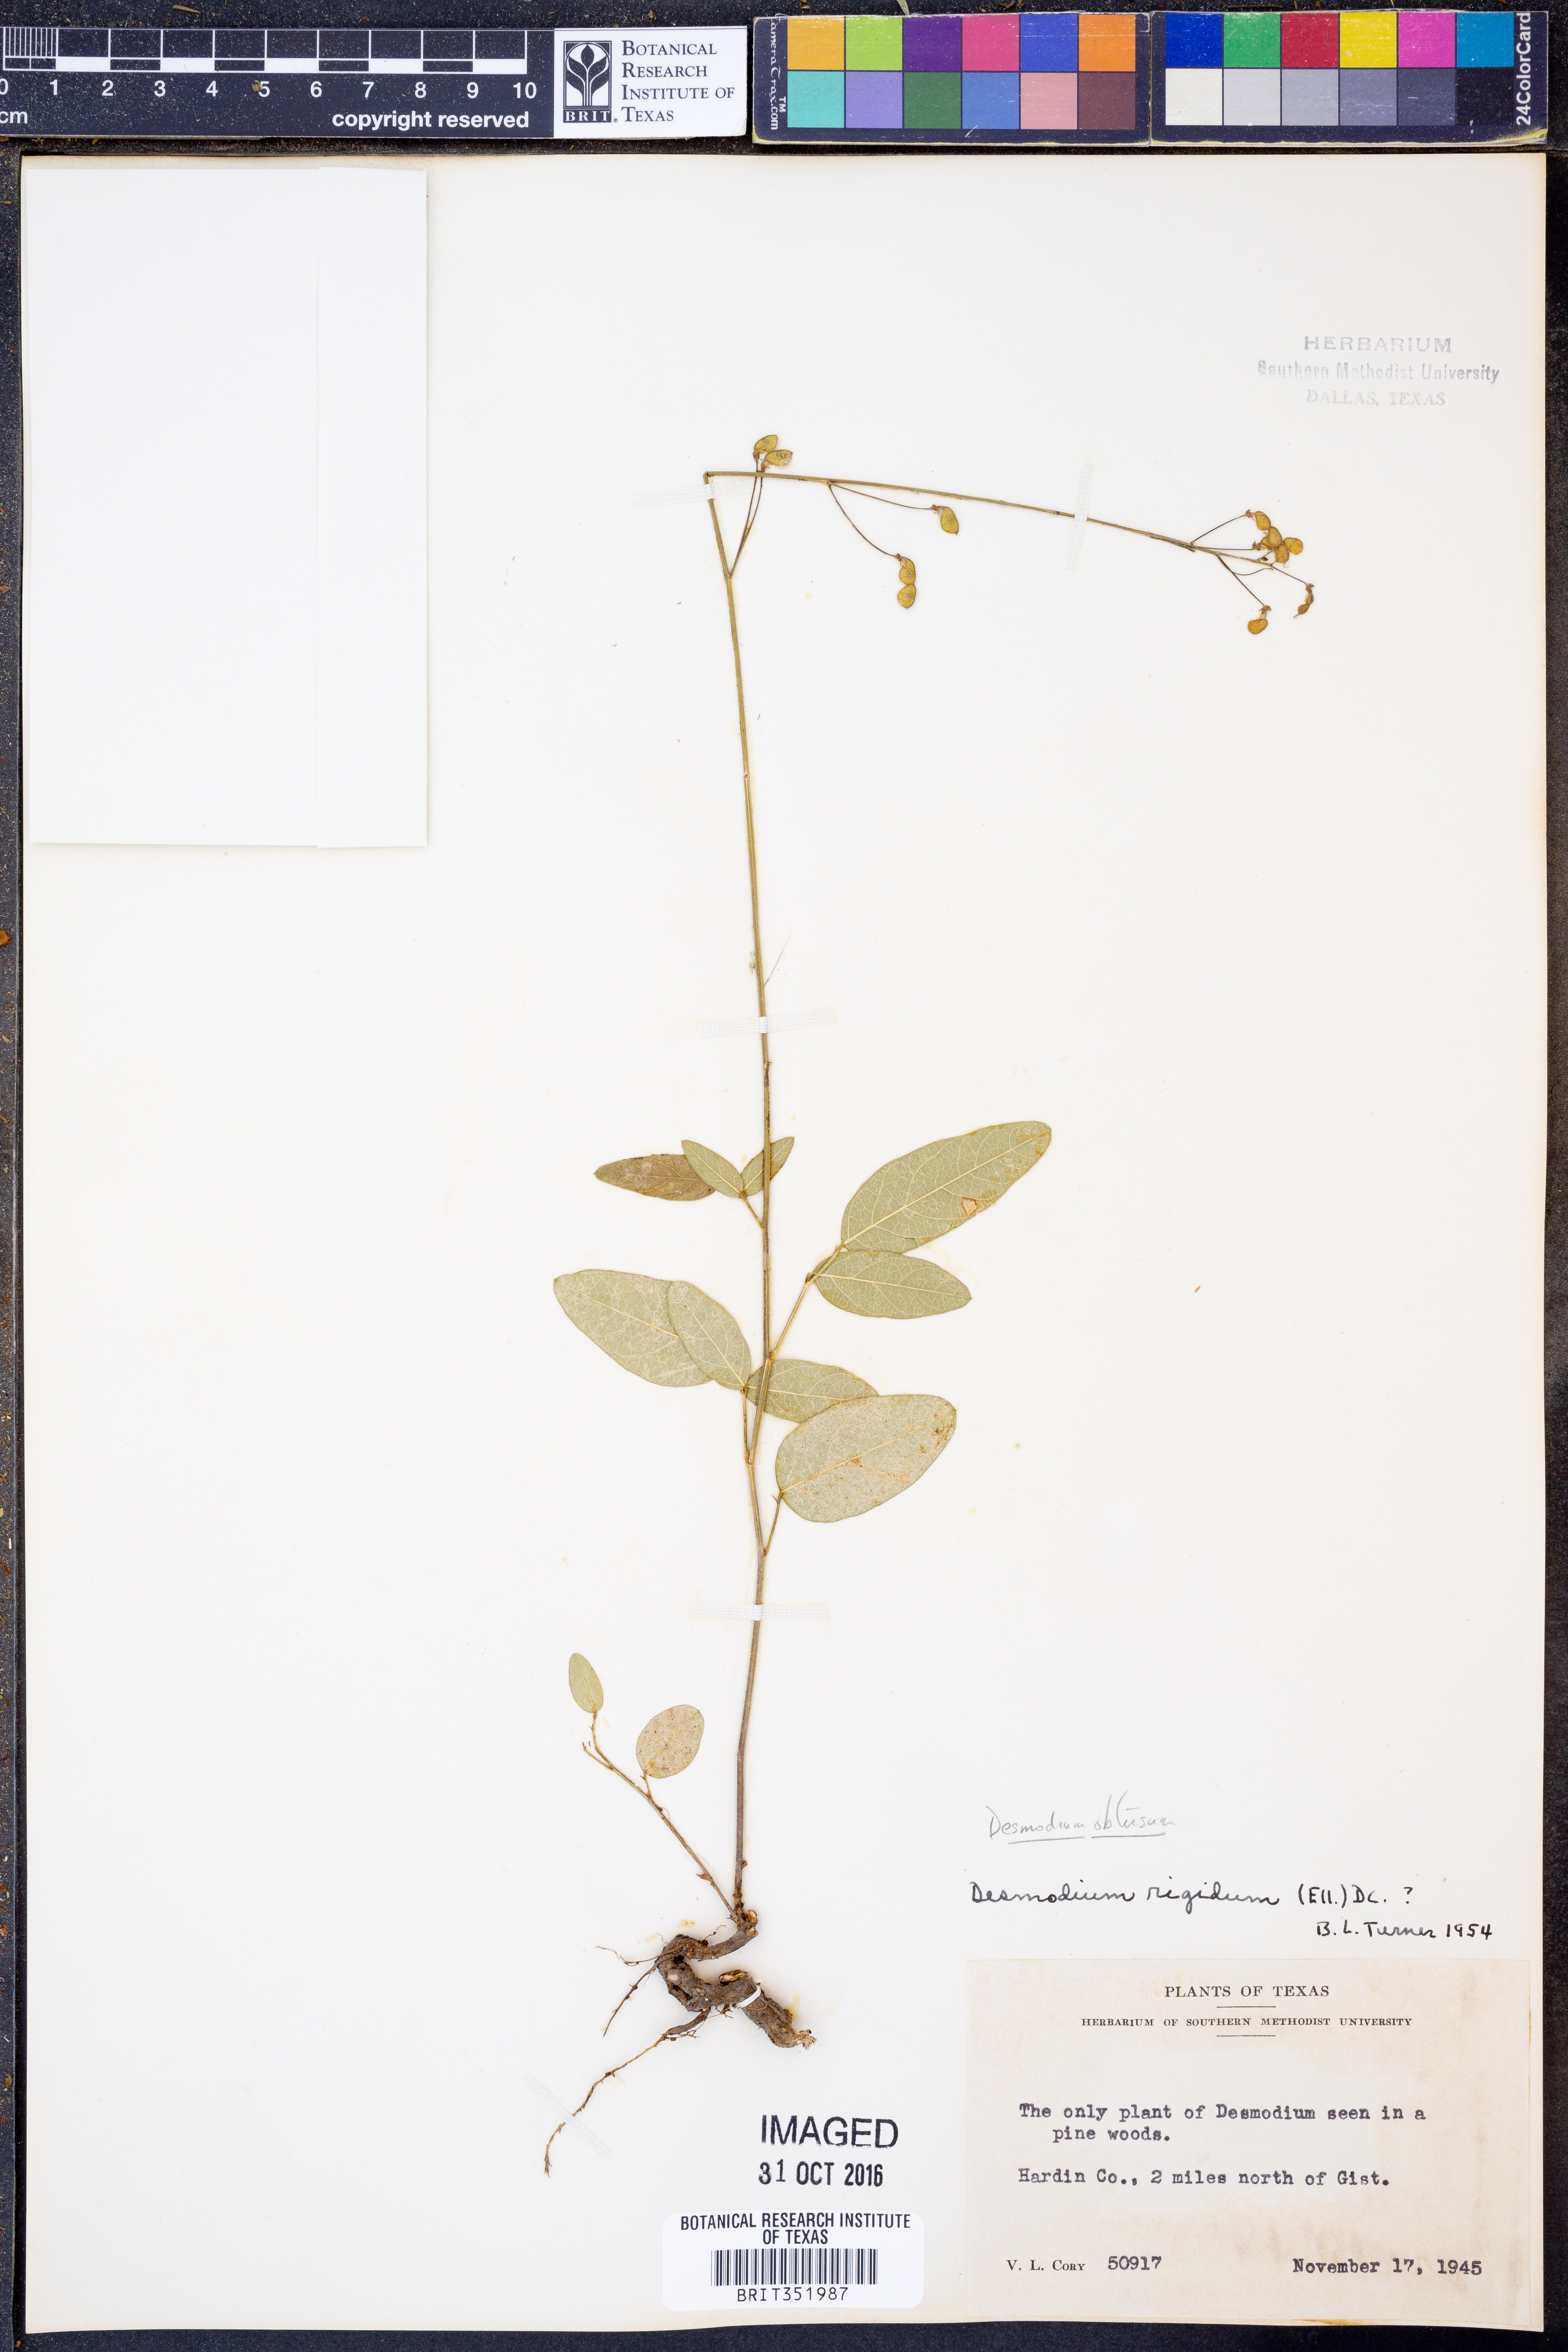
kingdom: Plantae
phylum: Tracheophyta
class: Magnoliopsida
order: Fabales
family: Fabaceae
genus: Desmodium
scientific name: Desmodium obtusum
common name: Stiff tick trefoil
